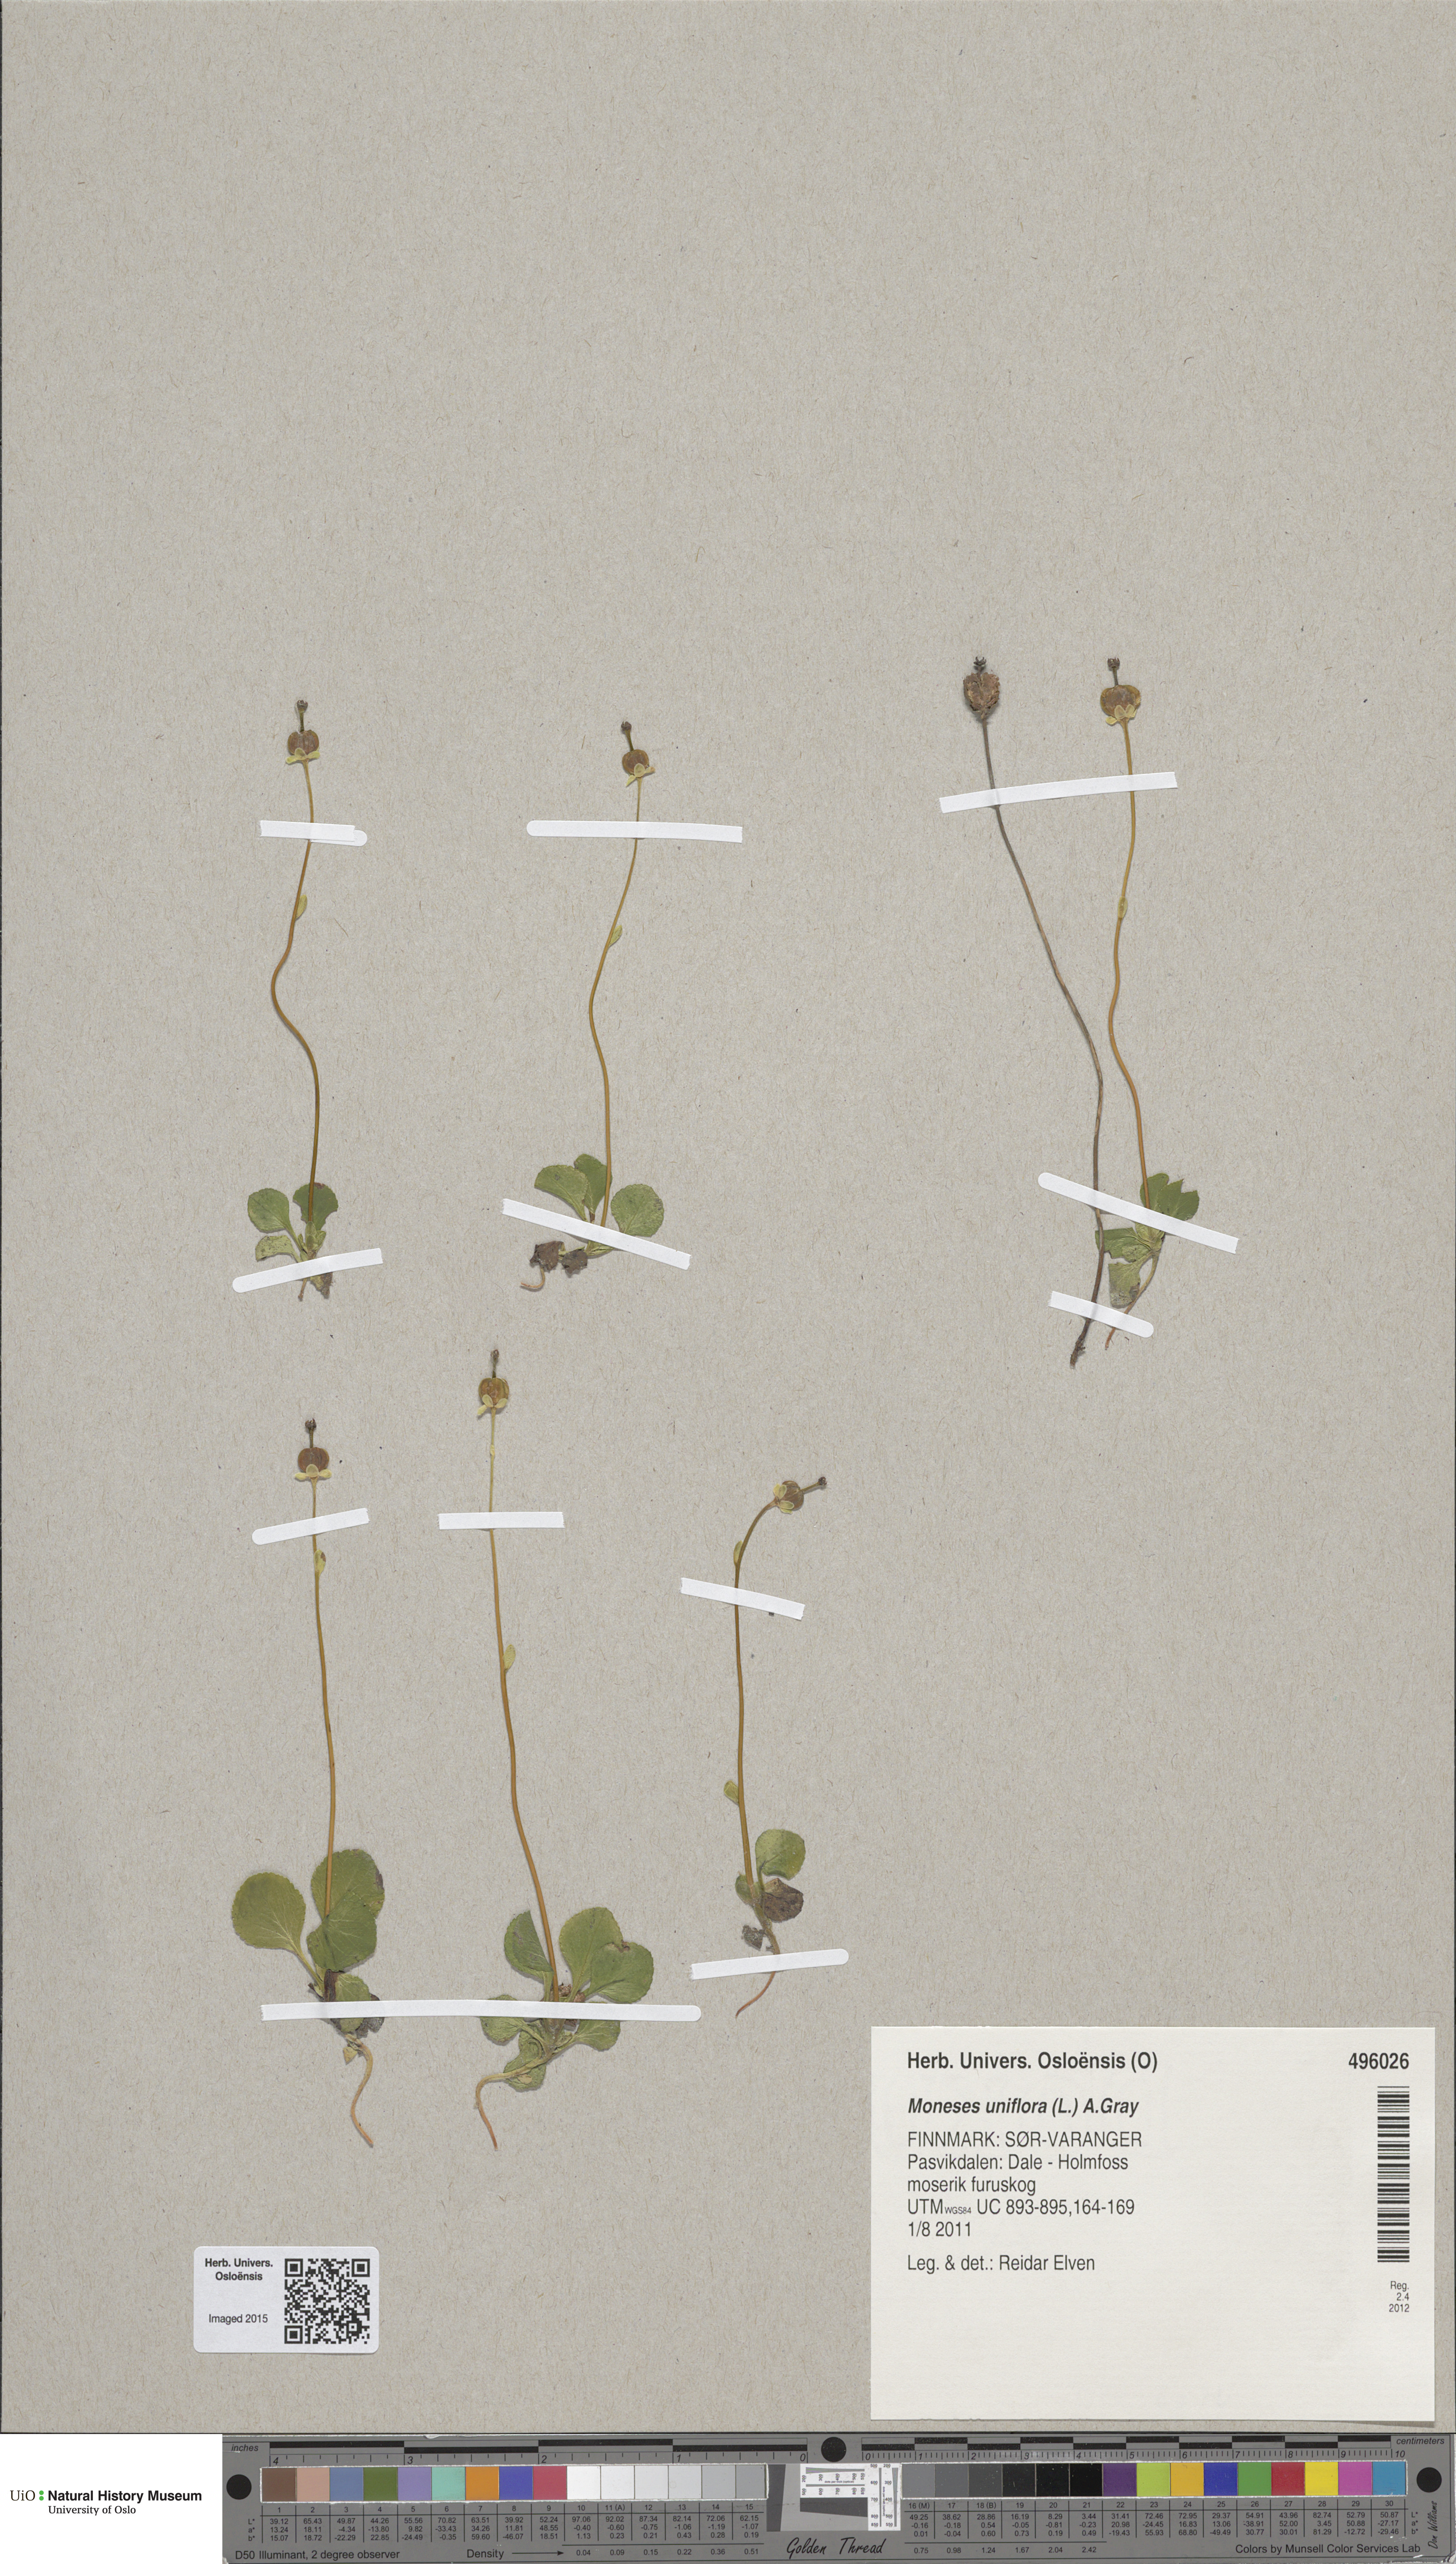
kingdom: Plantae
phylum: Tracheophyta
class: Magnoliopsida
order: Ericales
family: Ericaceae
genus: Moneses
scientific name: Moneses uniflora
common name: One-flowered wintergreen
